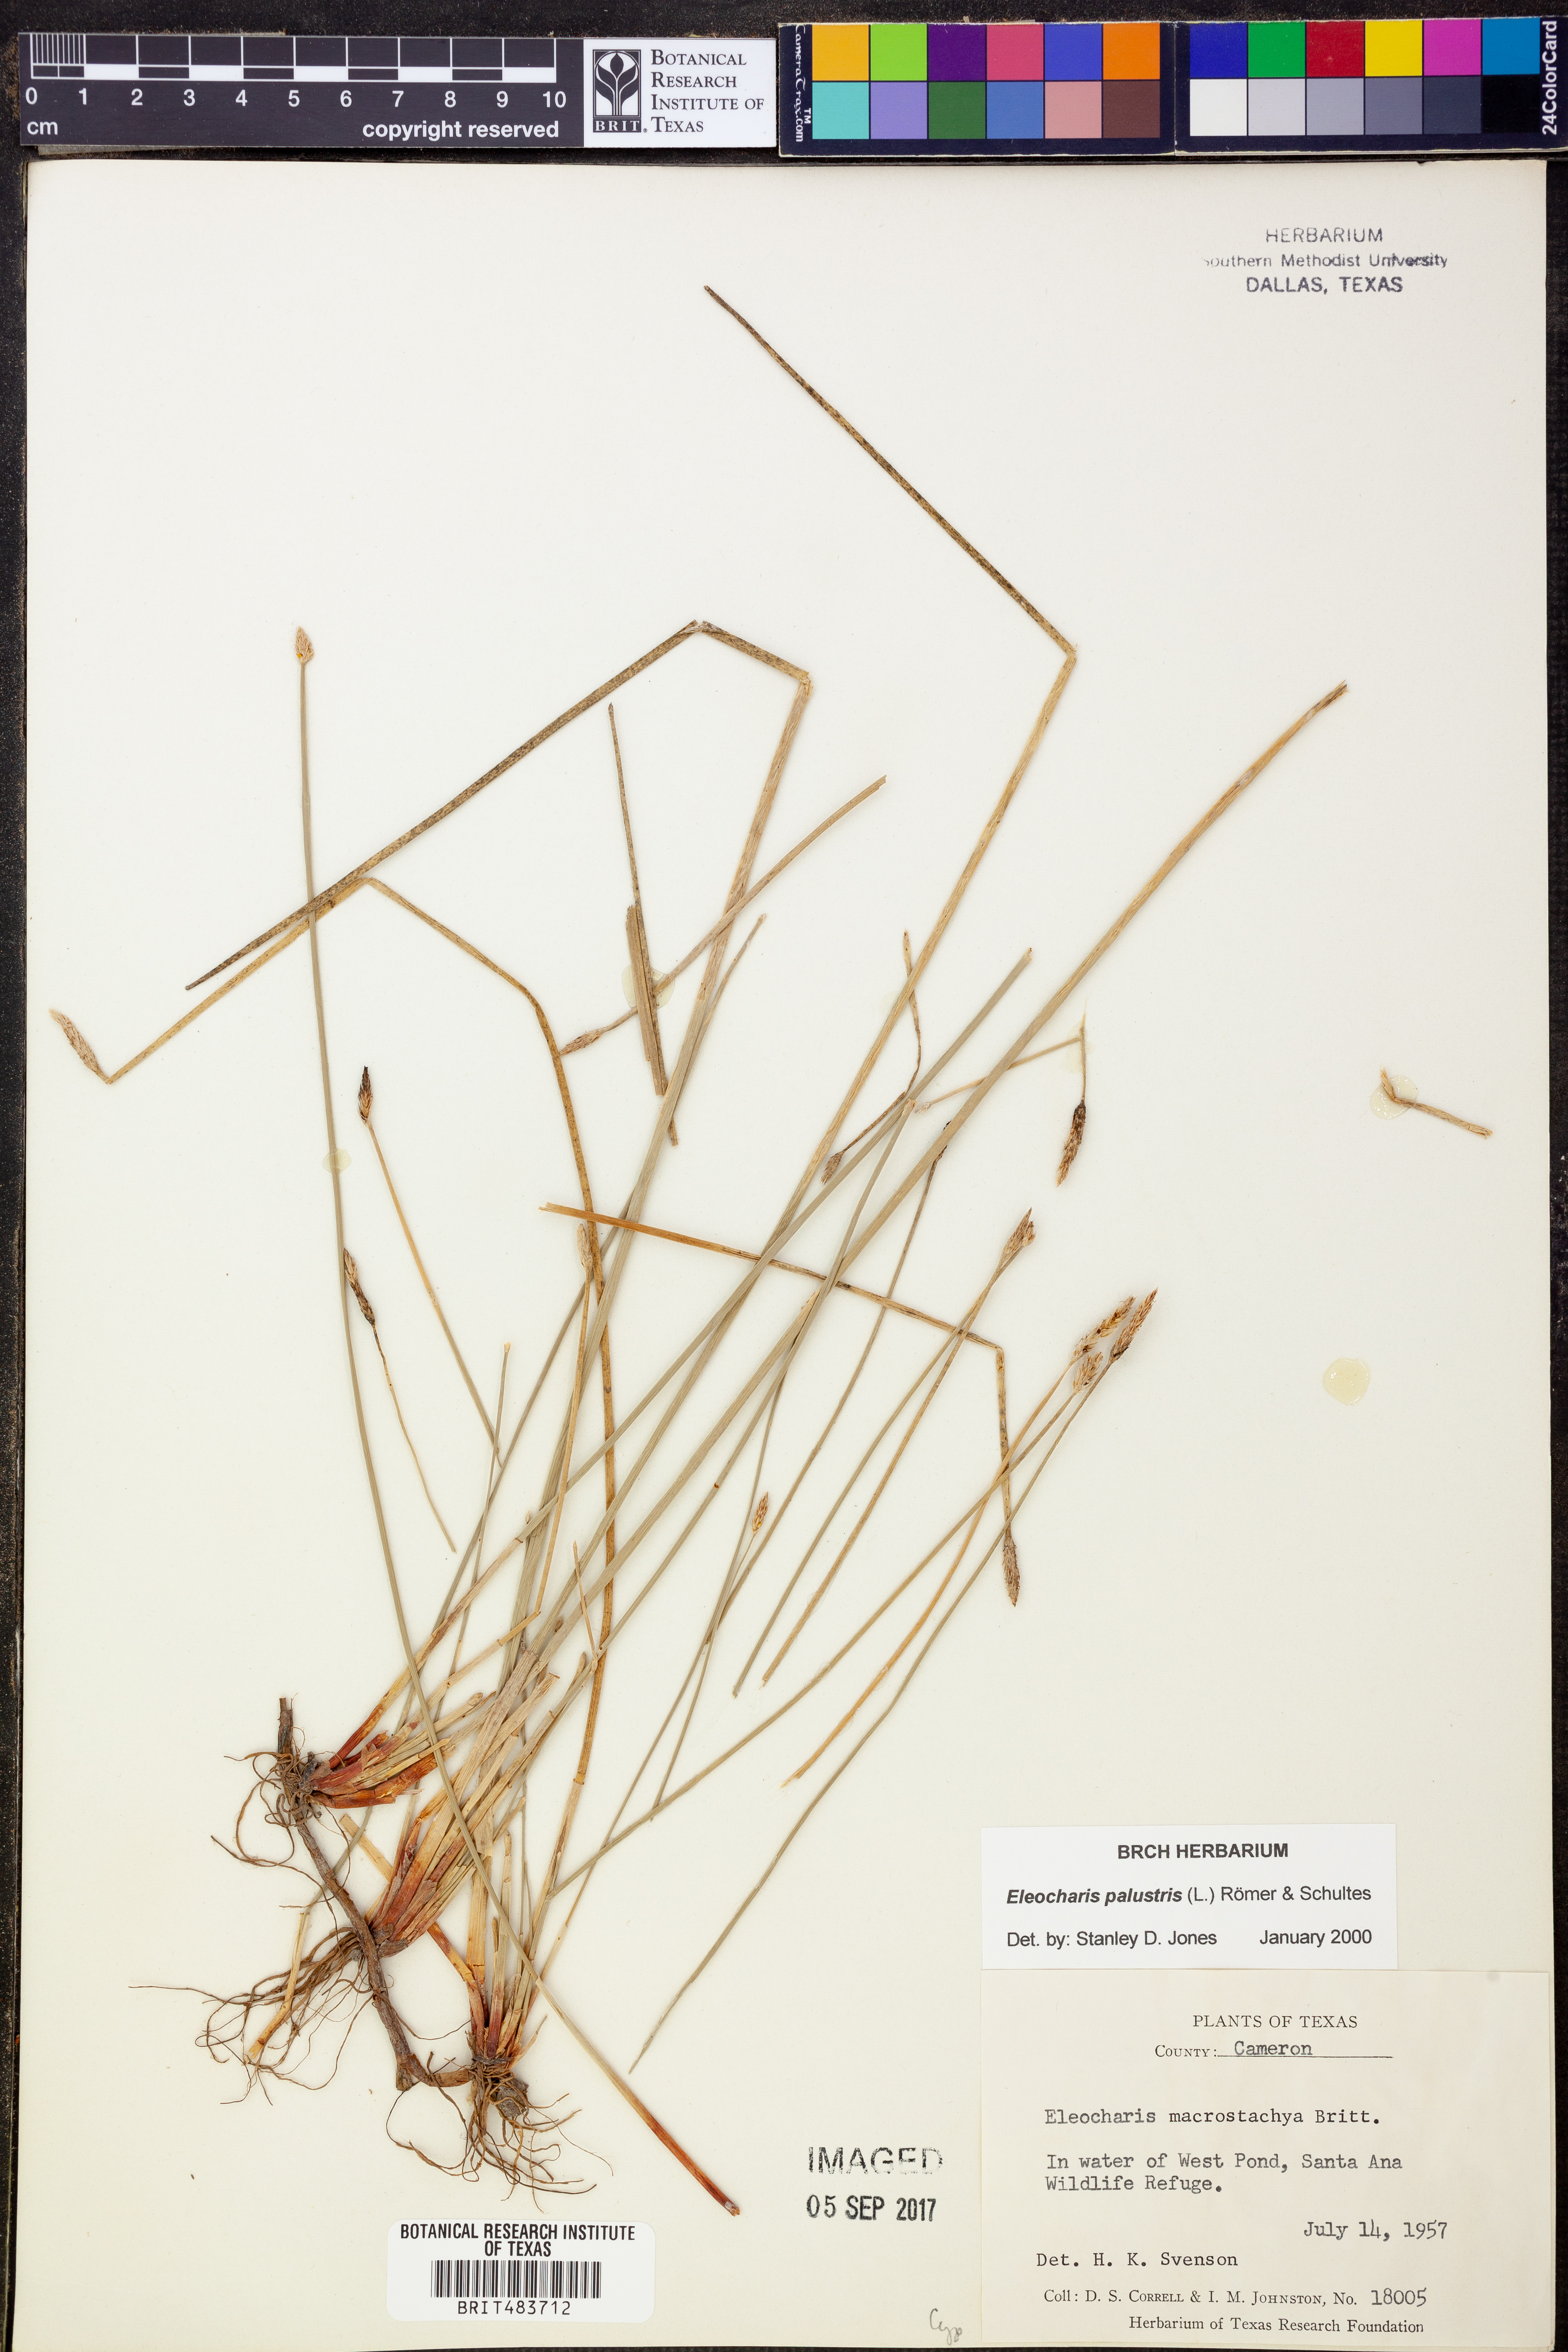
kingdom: Plantae
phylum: Tracheophyta
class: Liliopsida
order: Poales
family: Cyperaceae
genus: Eleocharis
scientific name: Eleocharis palustris
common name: Common spike-rush
